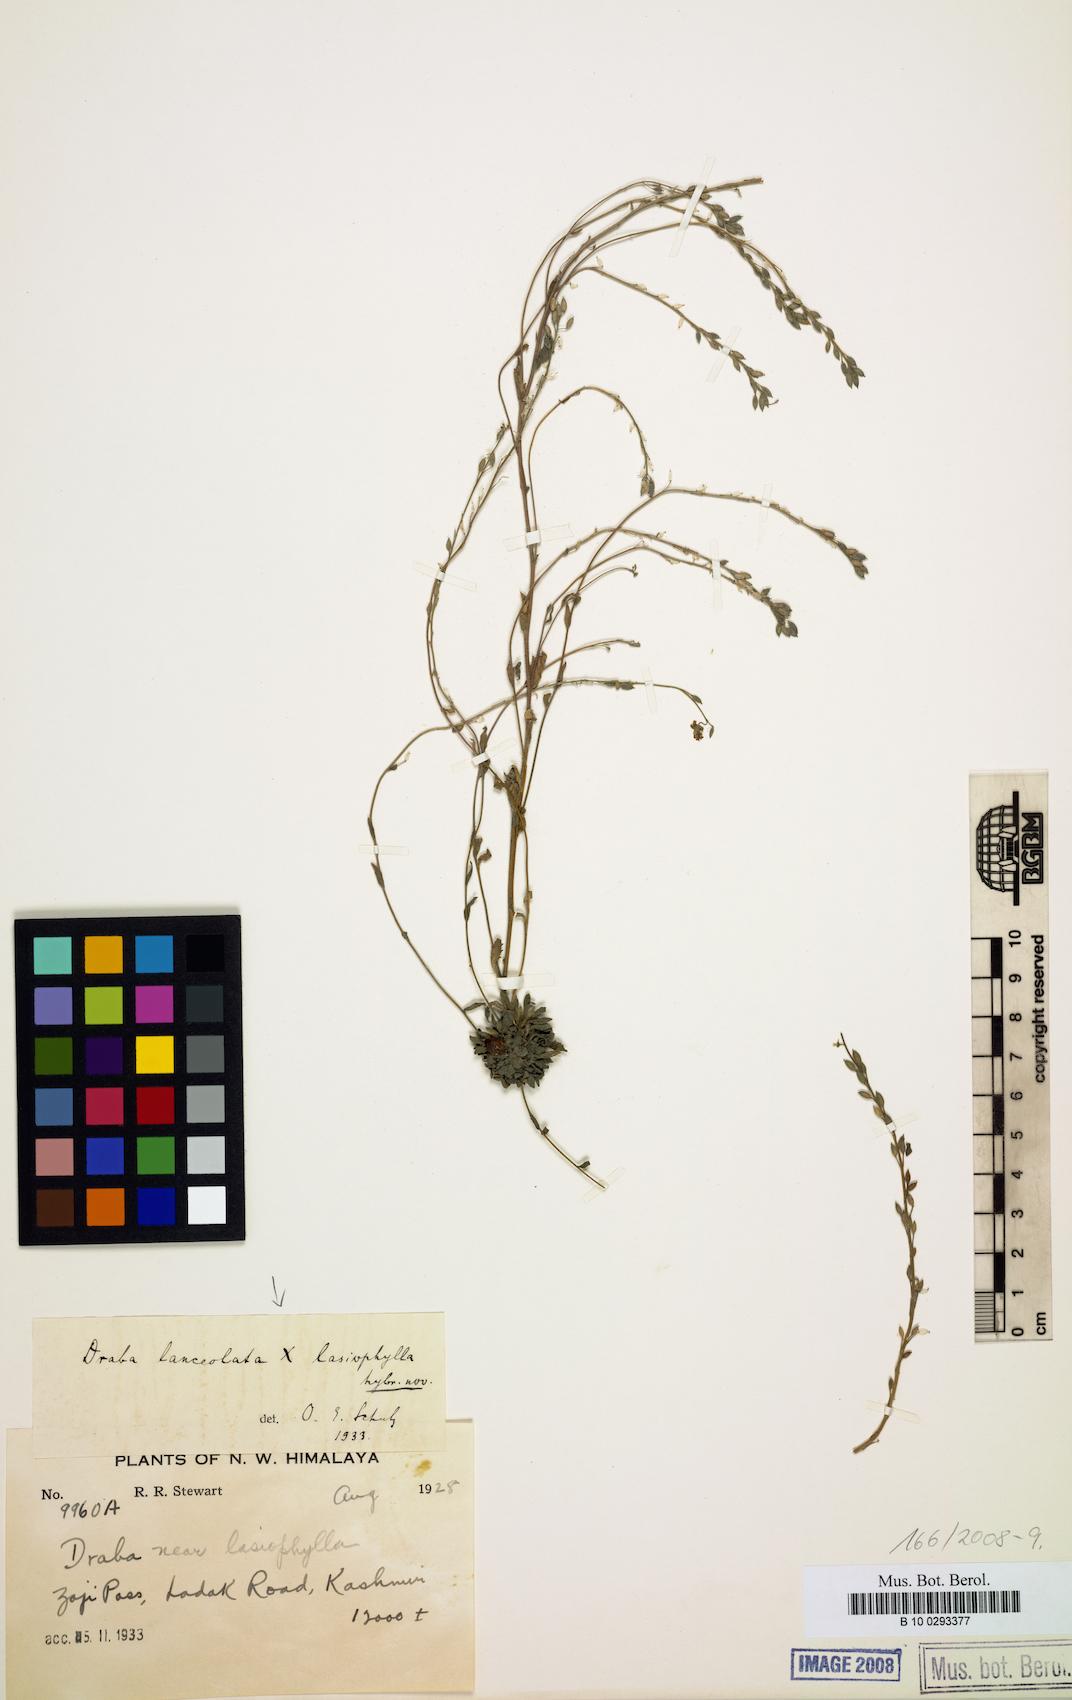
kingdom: Plantae
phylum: Tracheophyta
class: Magnoliopsida
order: Brassicales
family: Brassicaceae
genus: Draba
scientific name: Draba lanceolata
